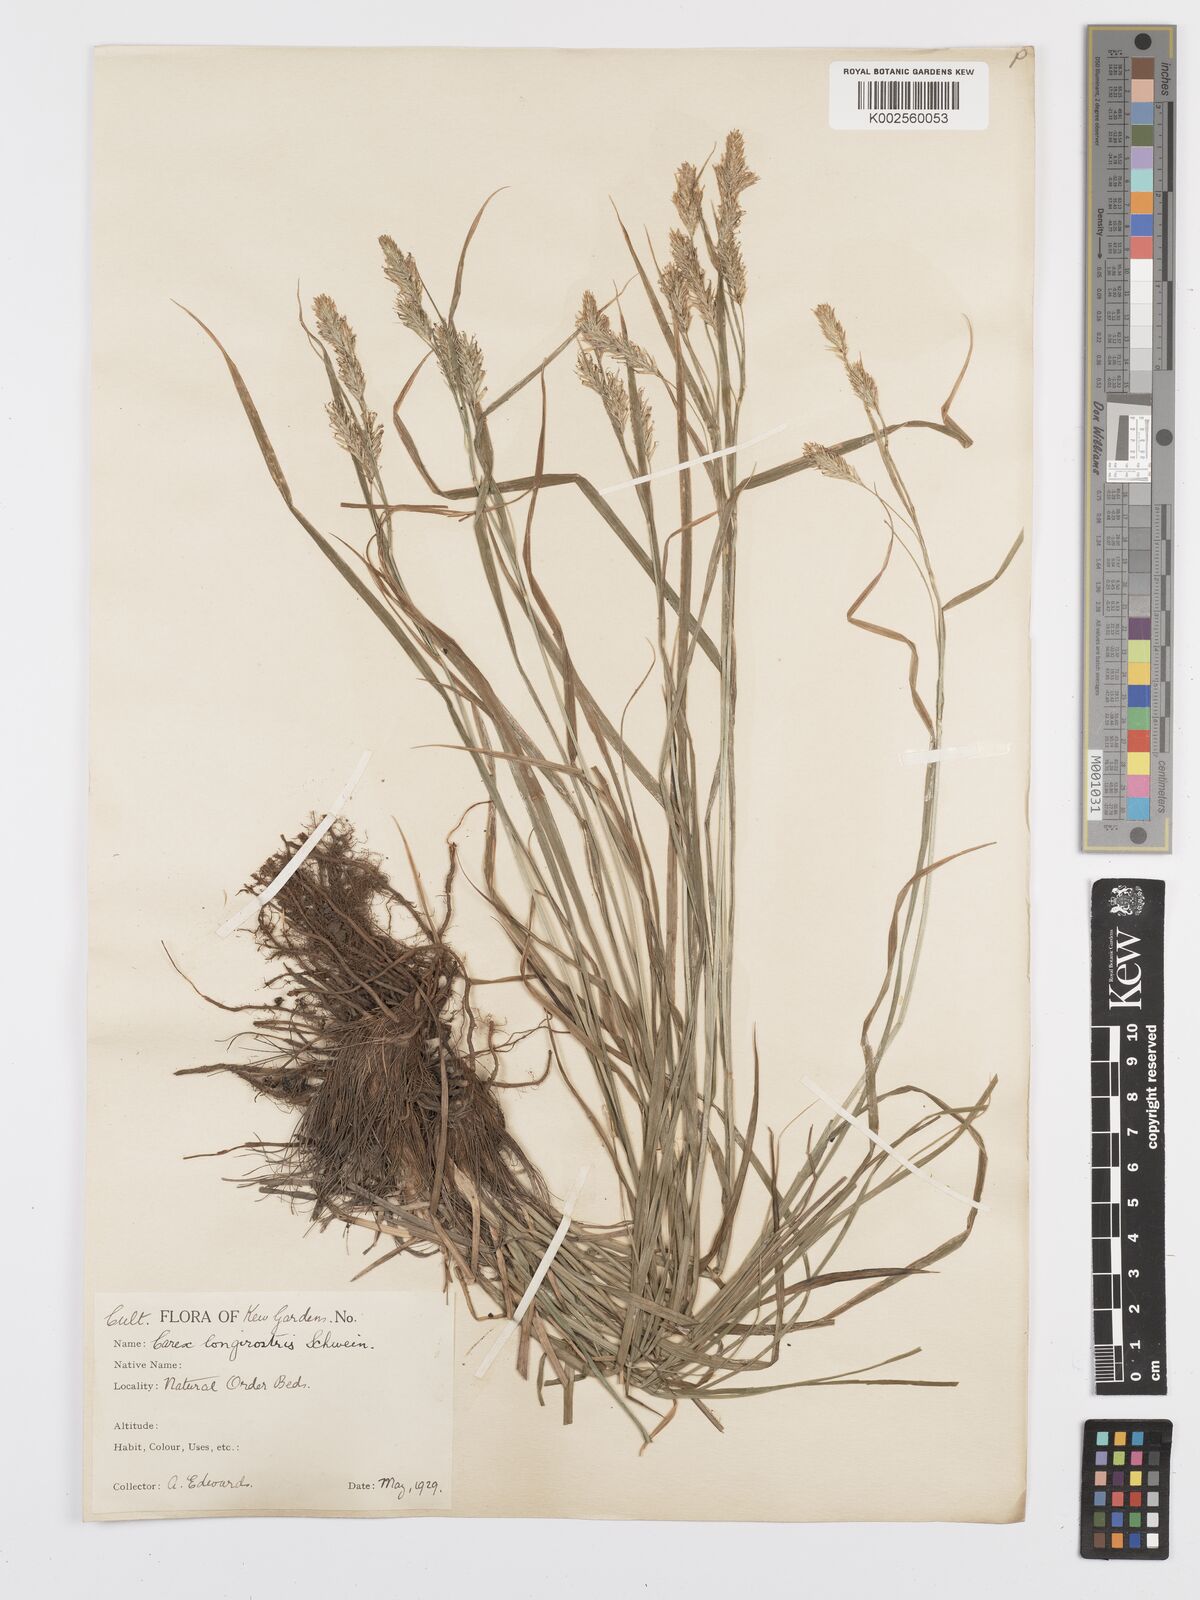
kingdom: Plantae
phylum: Tracheophyta
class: Liliopsida
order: Poales
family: Cyperaceae
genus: Carex
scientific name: Carex sprengelii
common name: Long-beaked sedge
